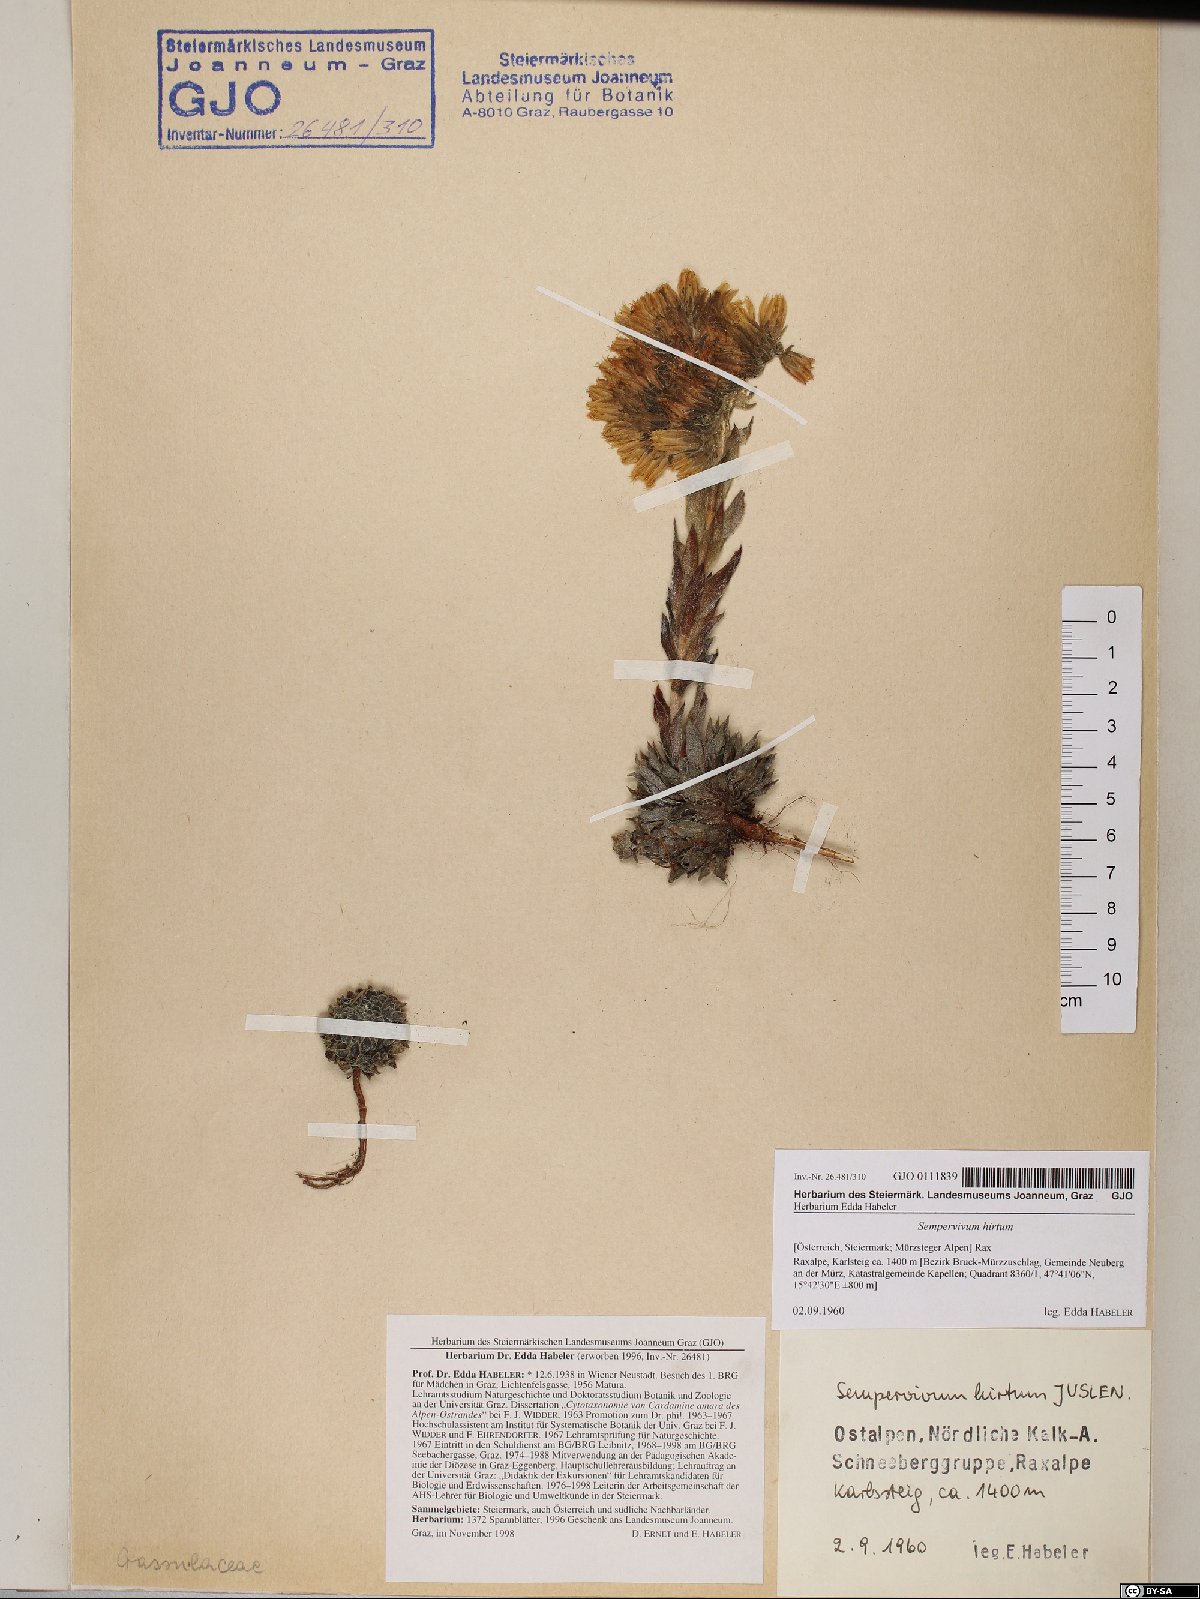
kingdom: Plantae
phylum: Tracheophyta
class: Magnoliopsida
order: Saxifragales
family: Crassulaceae
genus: Sempervivum
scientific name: Sempervivum globiferum
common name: Rolling hen-and-chicks
